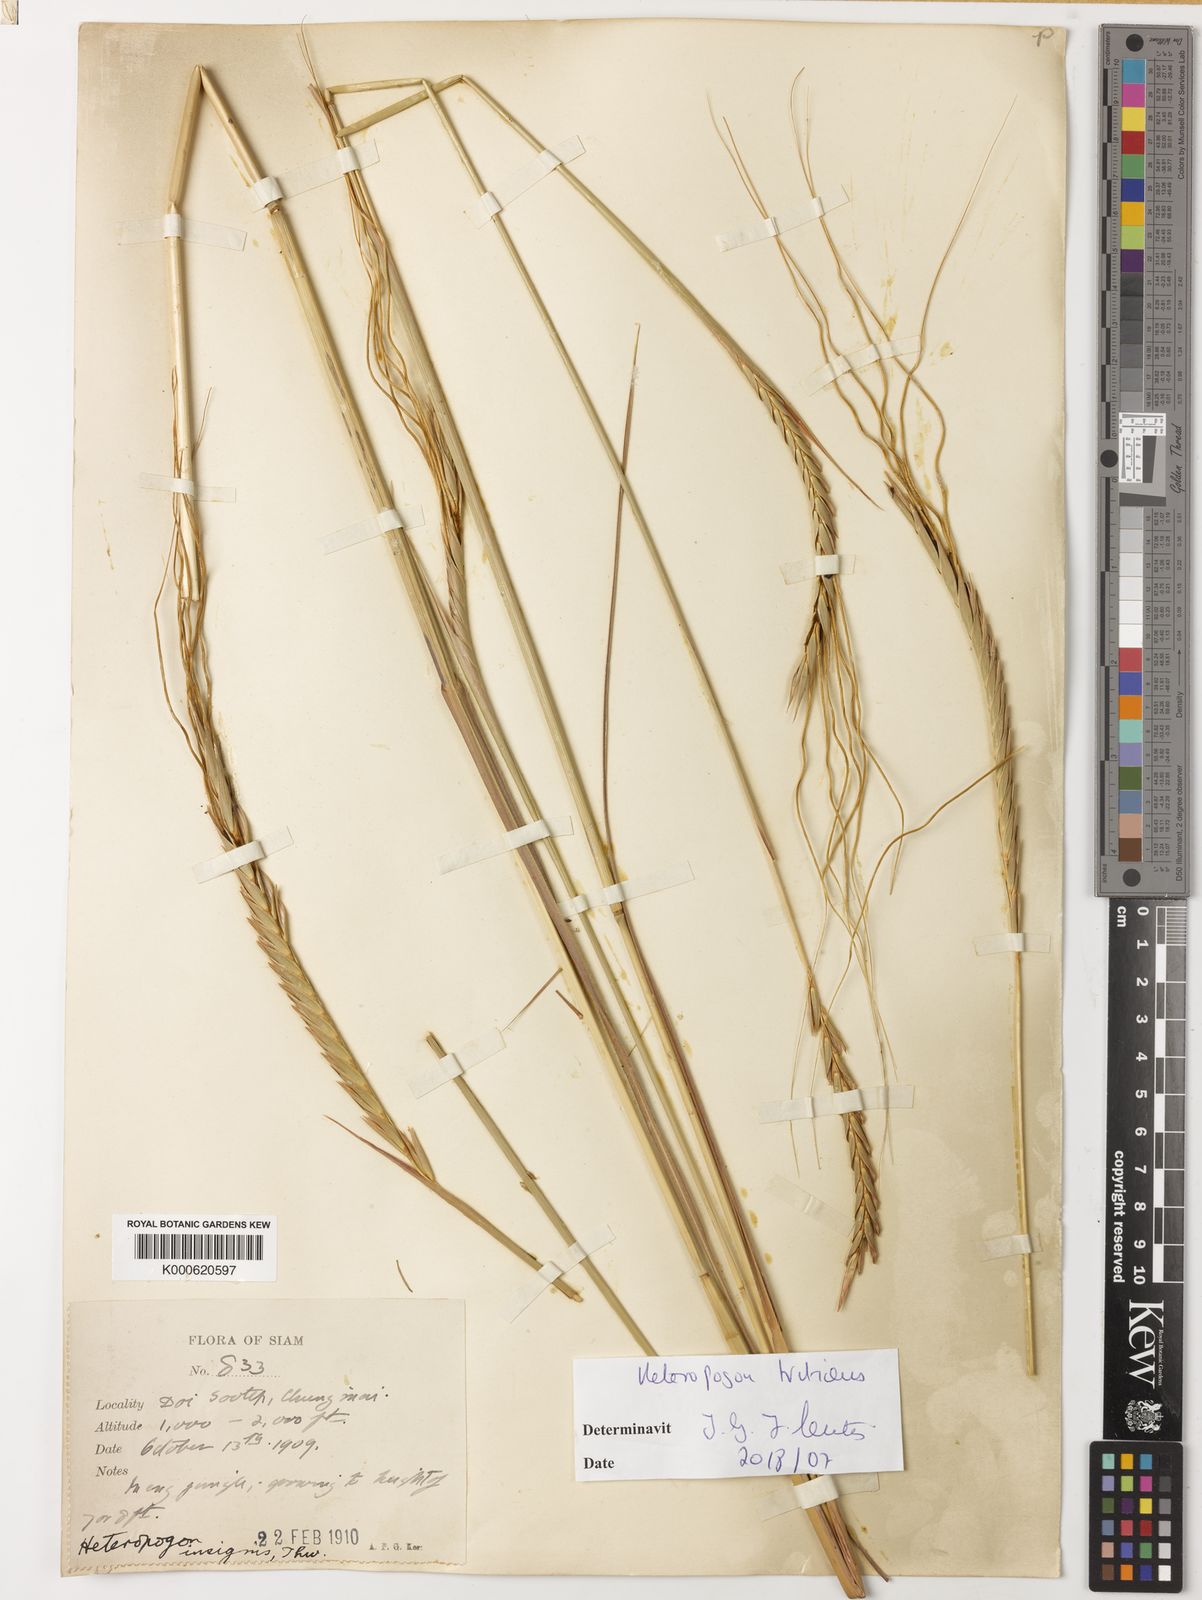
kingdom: Plantae
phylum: Tracheophyta
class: Liliopsida
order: Poales
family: Poaceae
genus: Heteropogon
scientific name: Heteropogon triticeus
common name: Sugar grass
